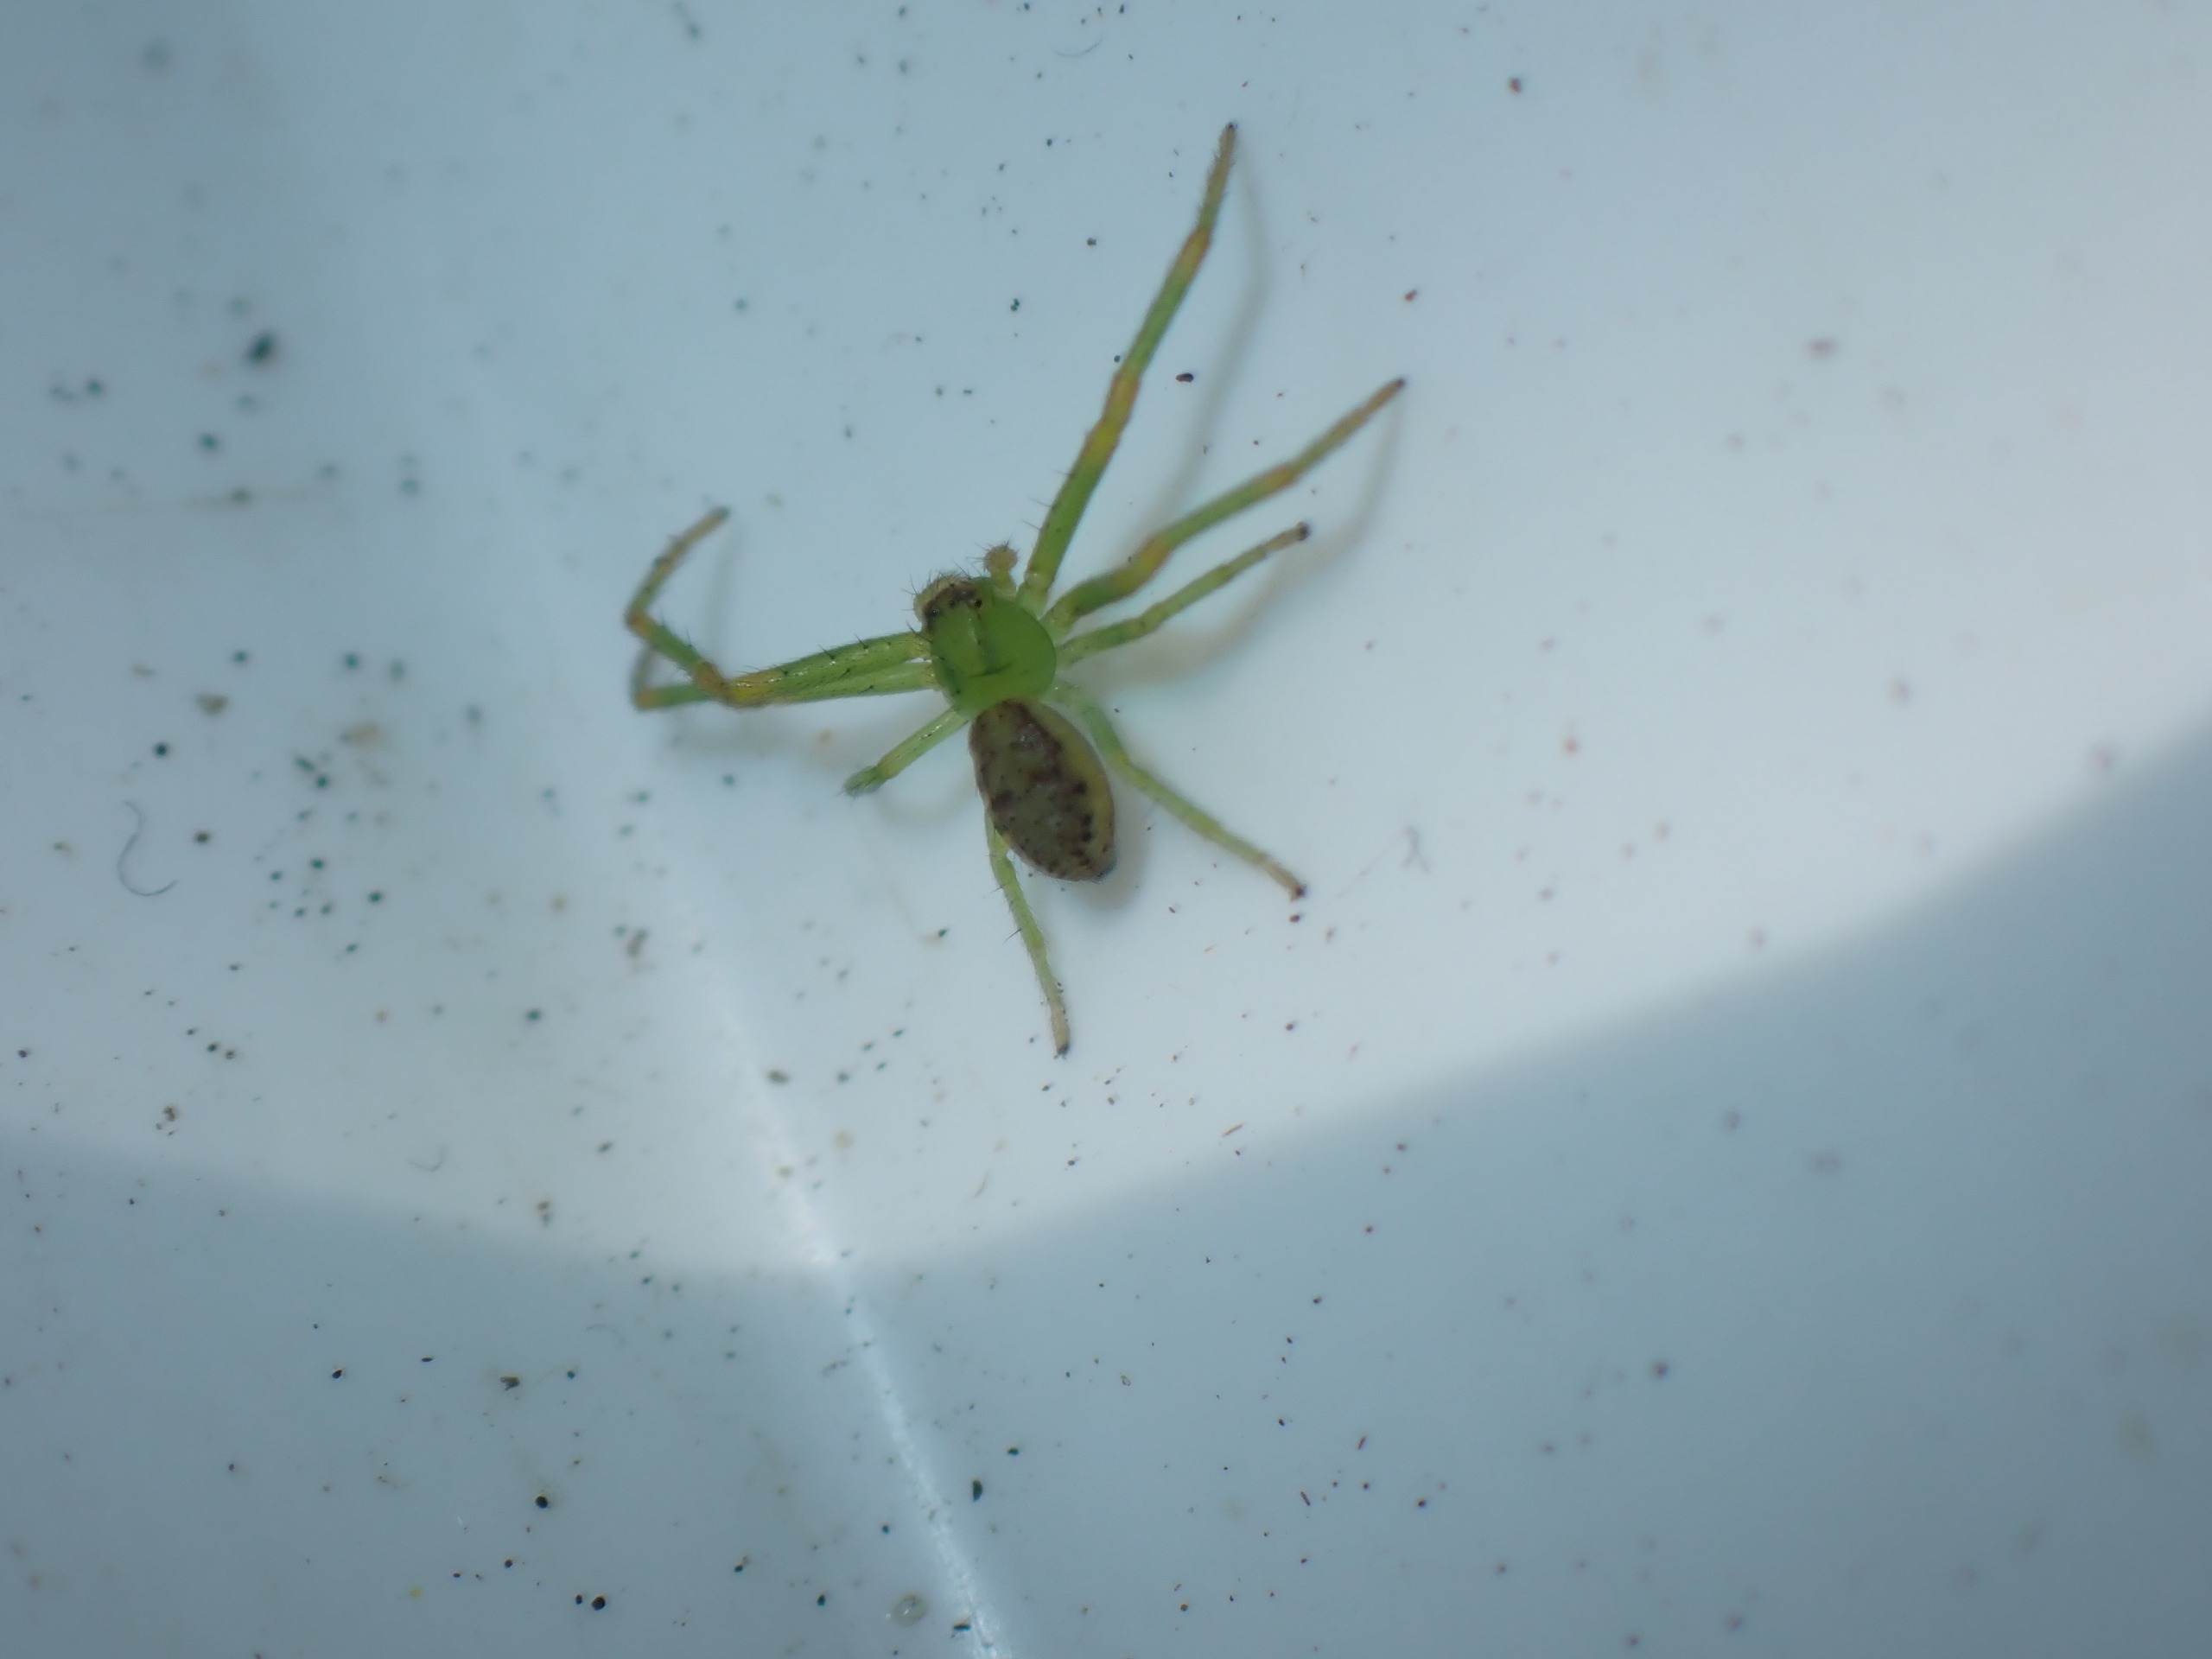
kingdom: Animalia
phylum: Arthropoda
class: Arachnida
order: Araneae
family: Thomisidae
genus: Diaea
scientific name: Diaea dorsata
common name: Grøn krabbeedderkop
